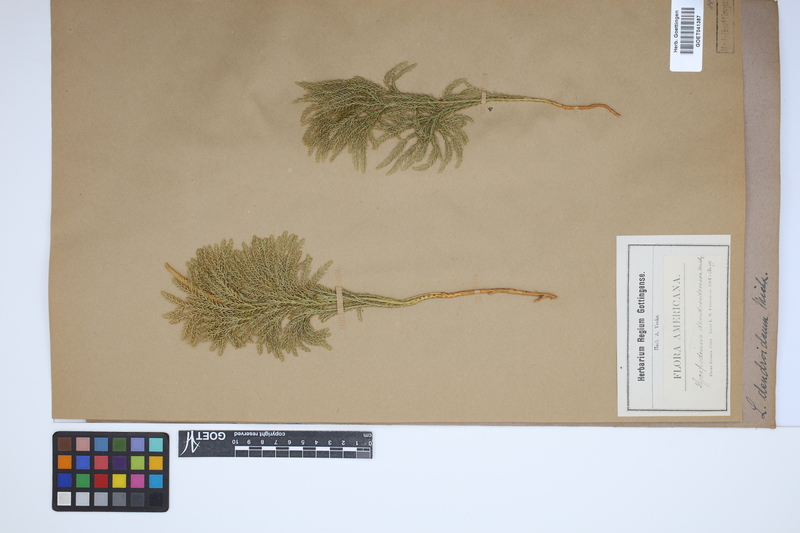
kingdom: Plantae
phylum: Tracheophyta
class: Lycopodiopsida
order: Lycopodiales
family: Lycopodiaceae
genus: Dendrolycopodium
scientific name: Dendrolycopodium dendroideum
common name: Northern tree-clubmoss
